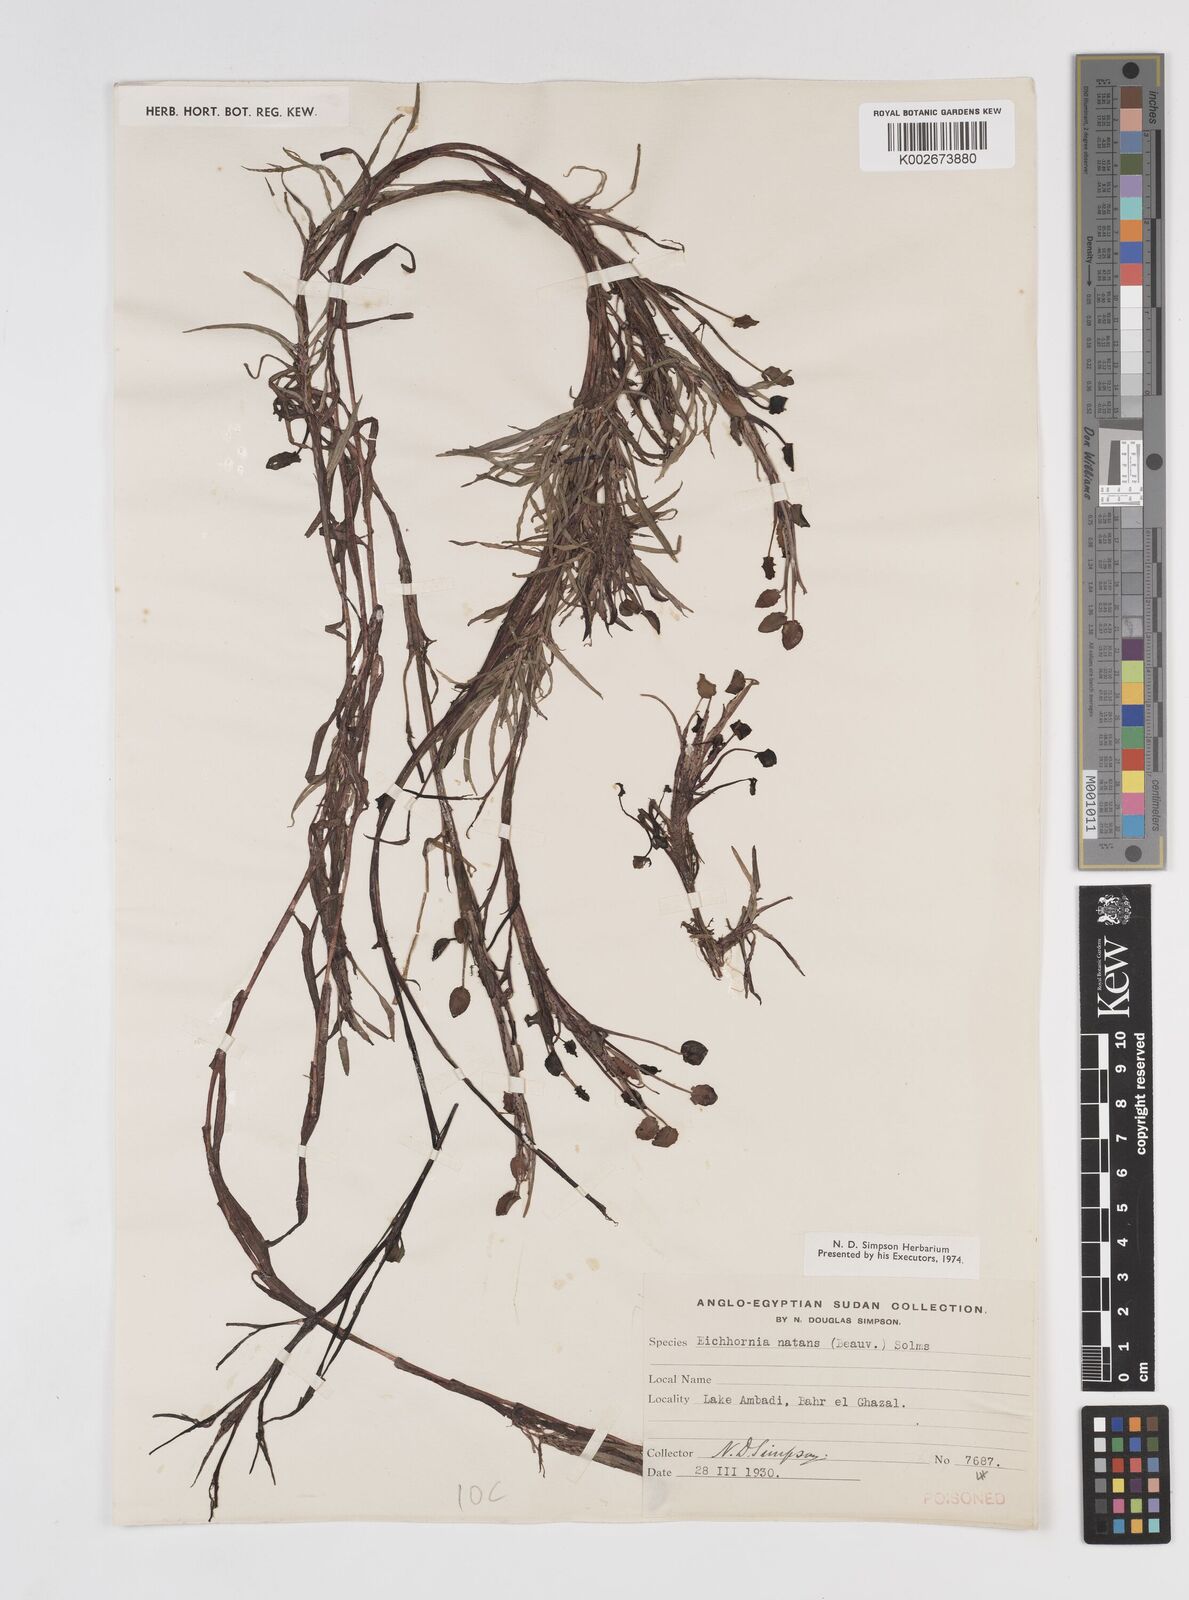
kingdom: Plantae
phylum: Tracheophyta
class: Liliopsida
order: Commelinales
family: Pontederiaceae
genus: Pontederia
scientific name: Pontederia diversifolia
